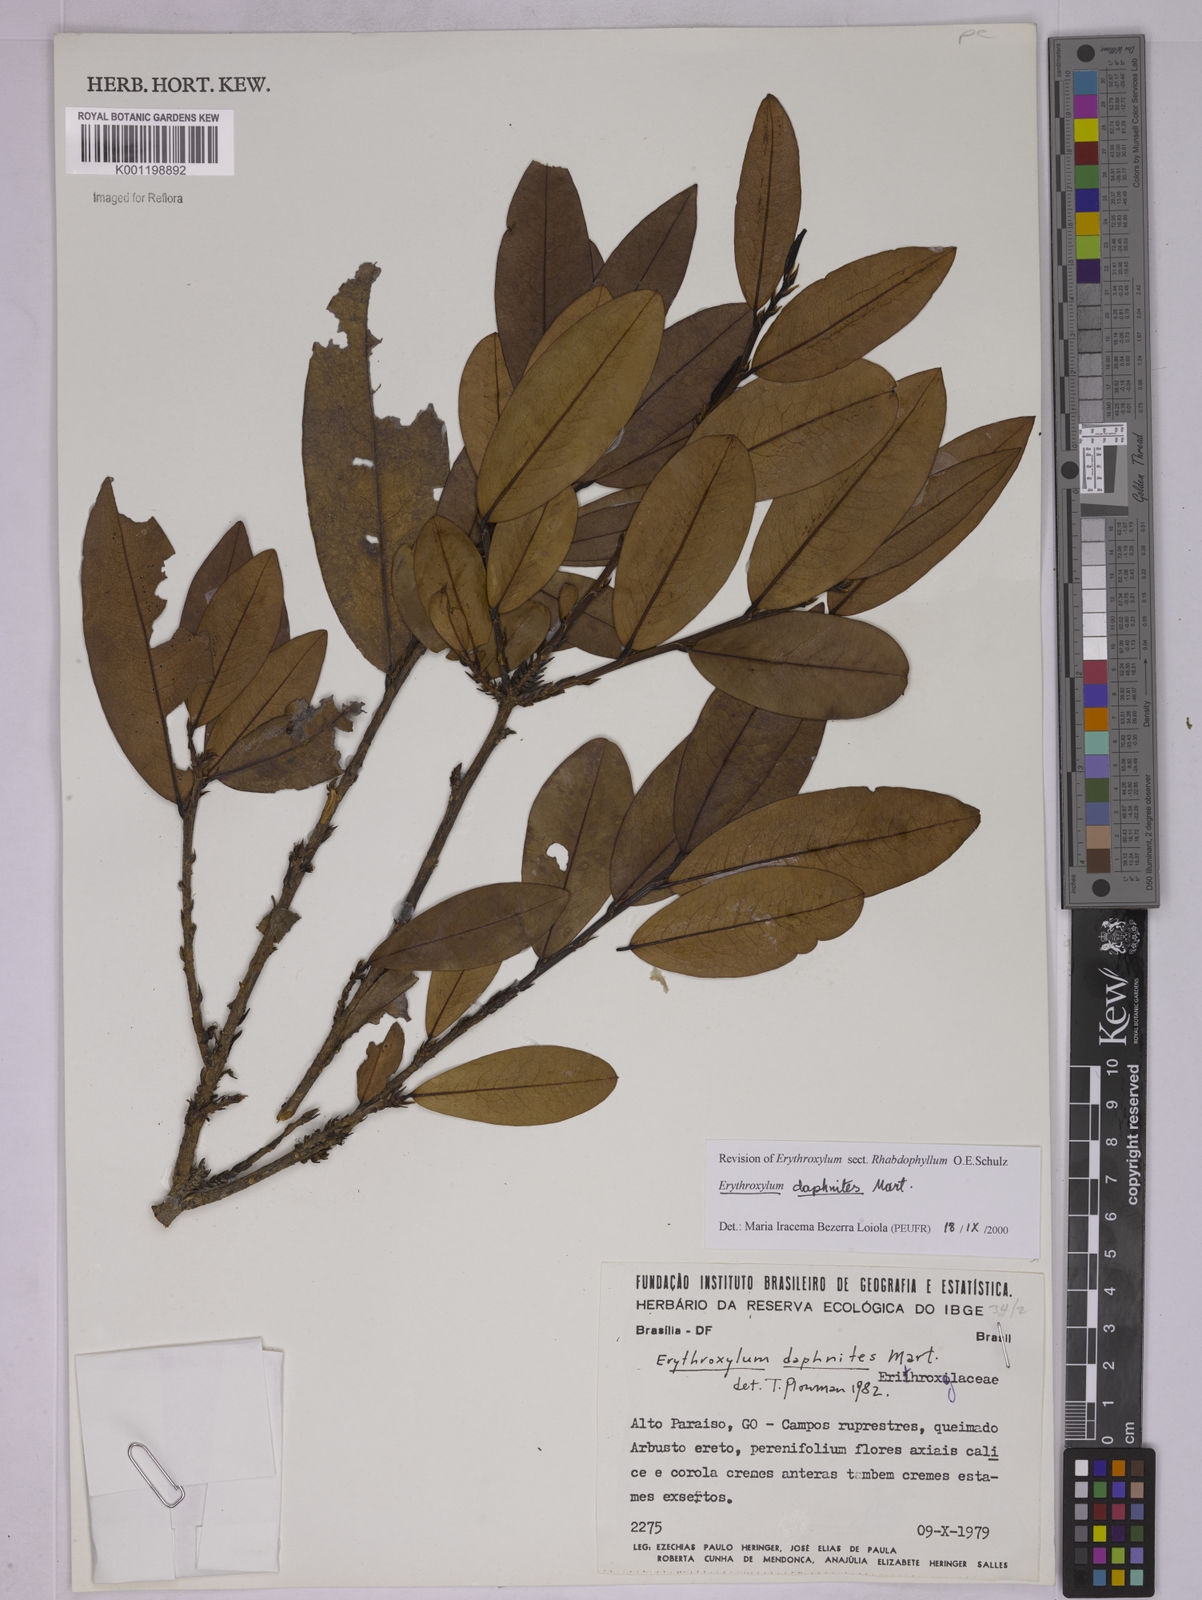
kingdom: Plantae
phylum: Tracheophyta
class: Magnoliopsida
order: Malpighiales
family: Erythroxylaceae
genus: Erythroxylum
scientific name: Erythroxylum daphnites
